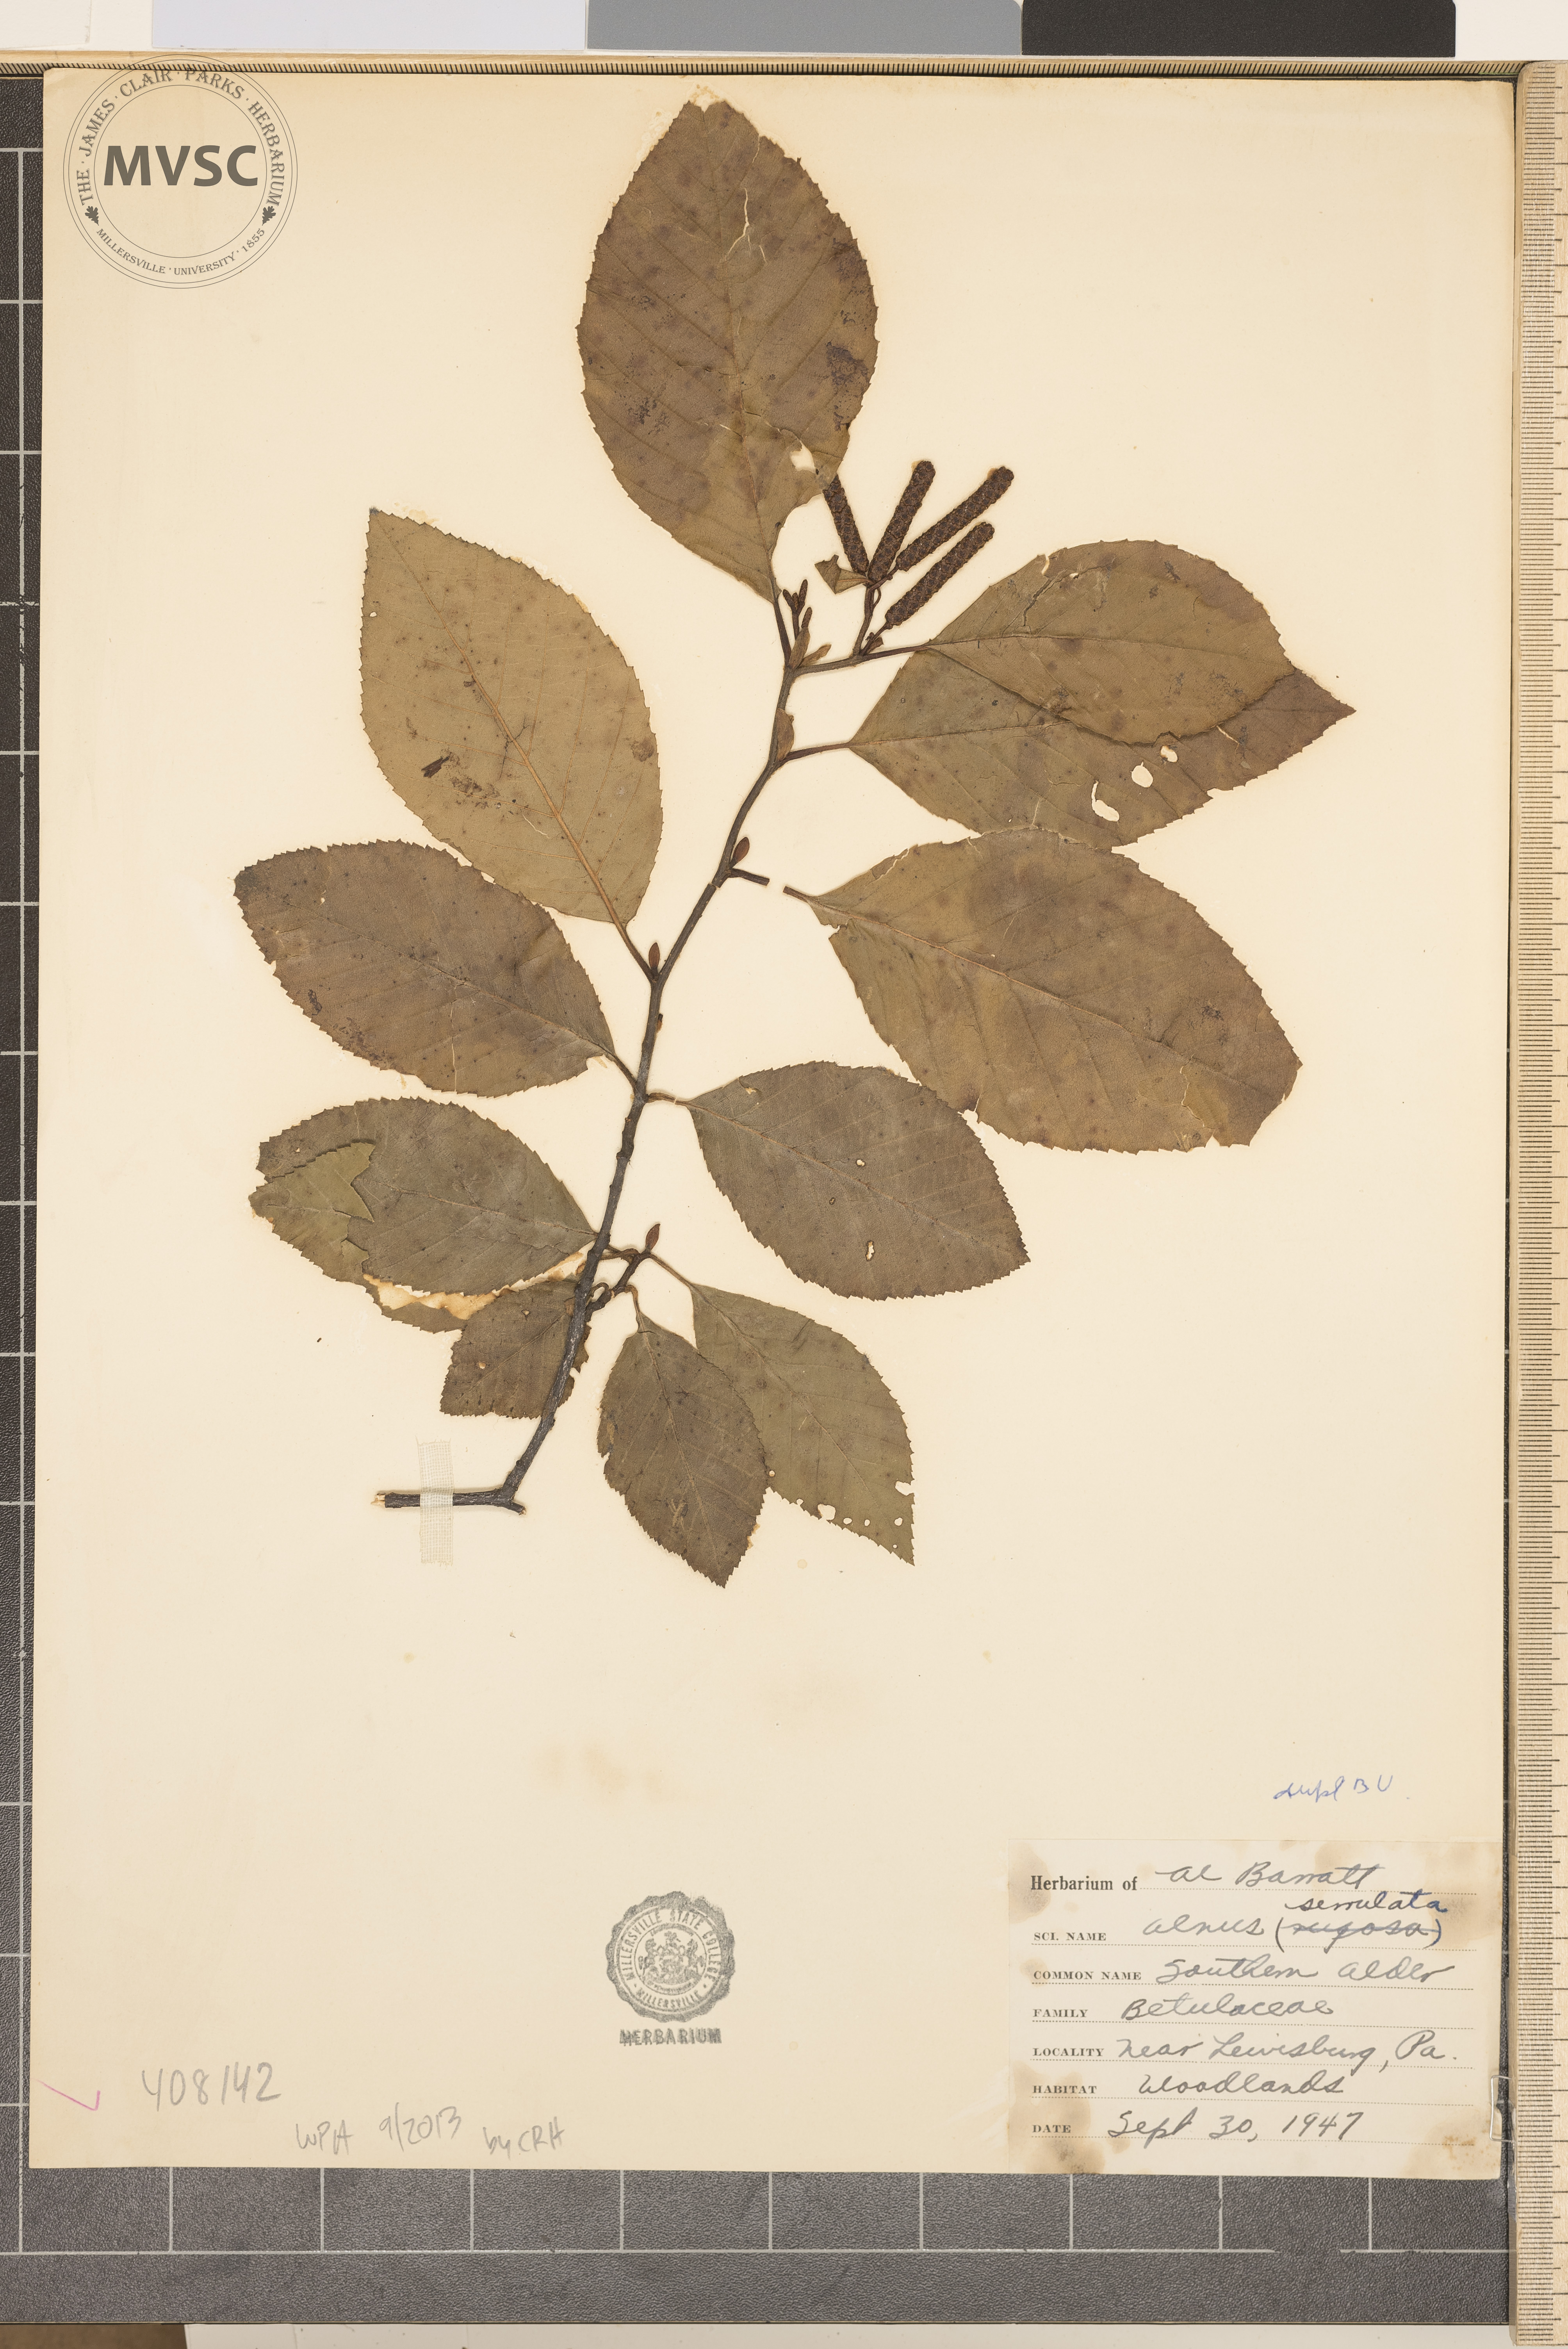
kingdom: Plantae
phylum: Tracheophyta
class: Magnoliopsida
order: Fagales
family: Betulaceae
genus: Alnus
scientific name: Alnus serrulata
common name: smooth alder
